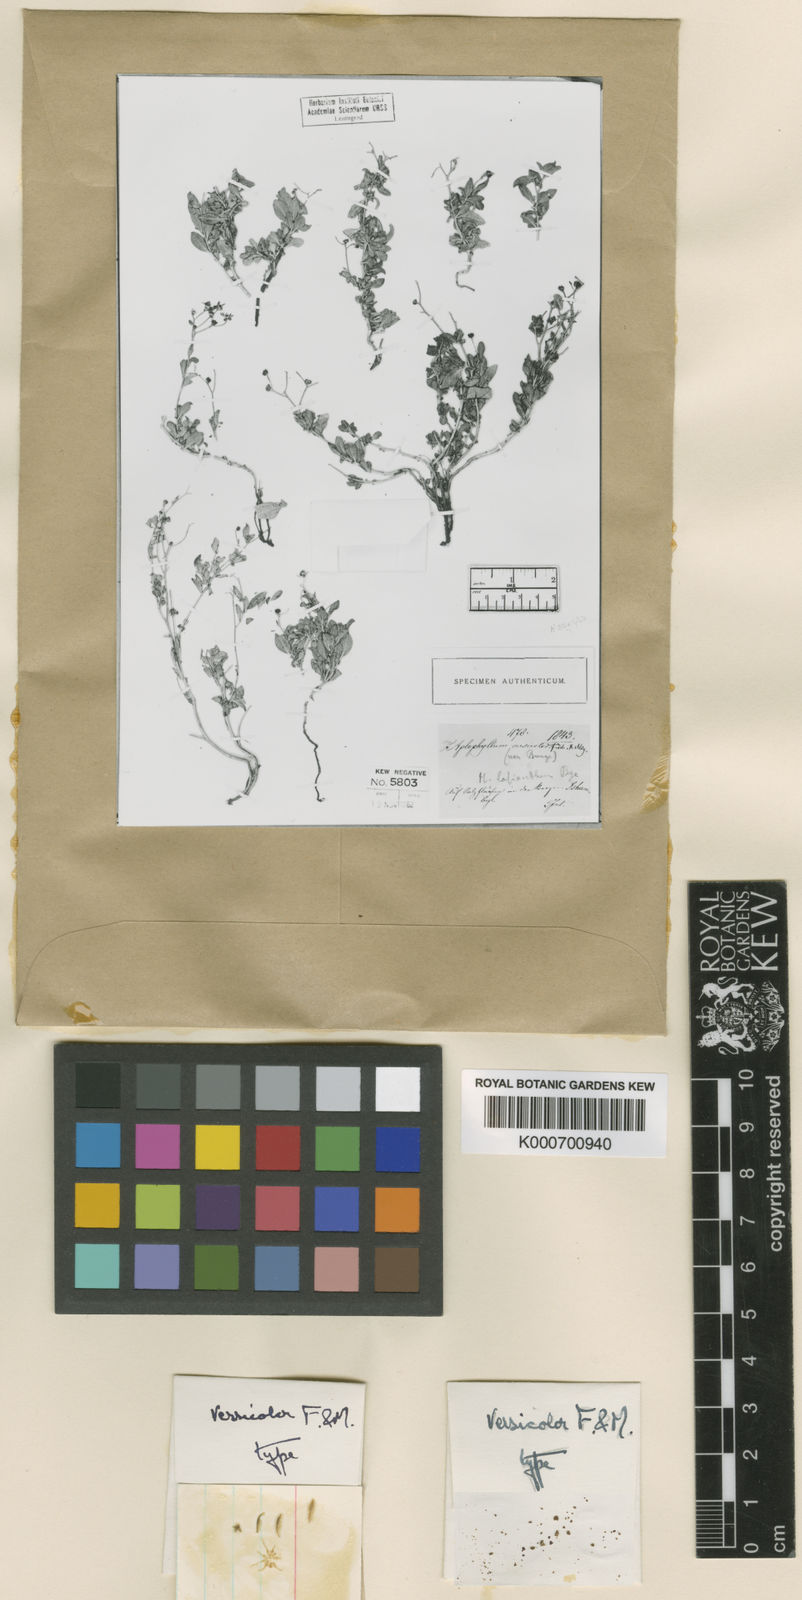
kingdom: Plantae
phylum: Tracheophyta
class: Magnoliopsida
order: Sapindales
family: Rutaceae
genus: Haplophyllum
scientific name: Haplophyllum versicolor
